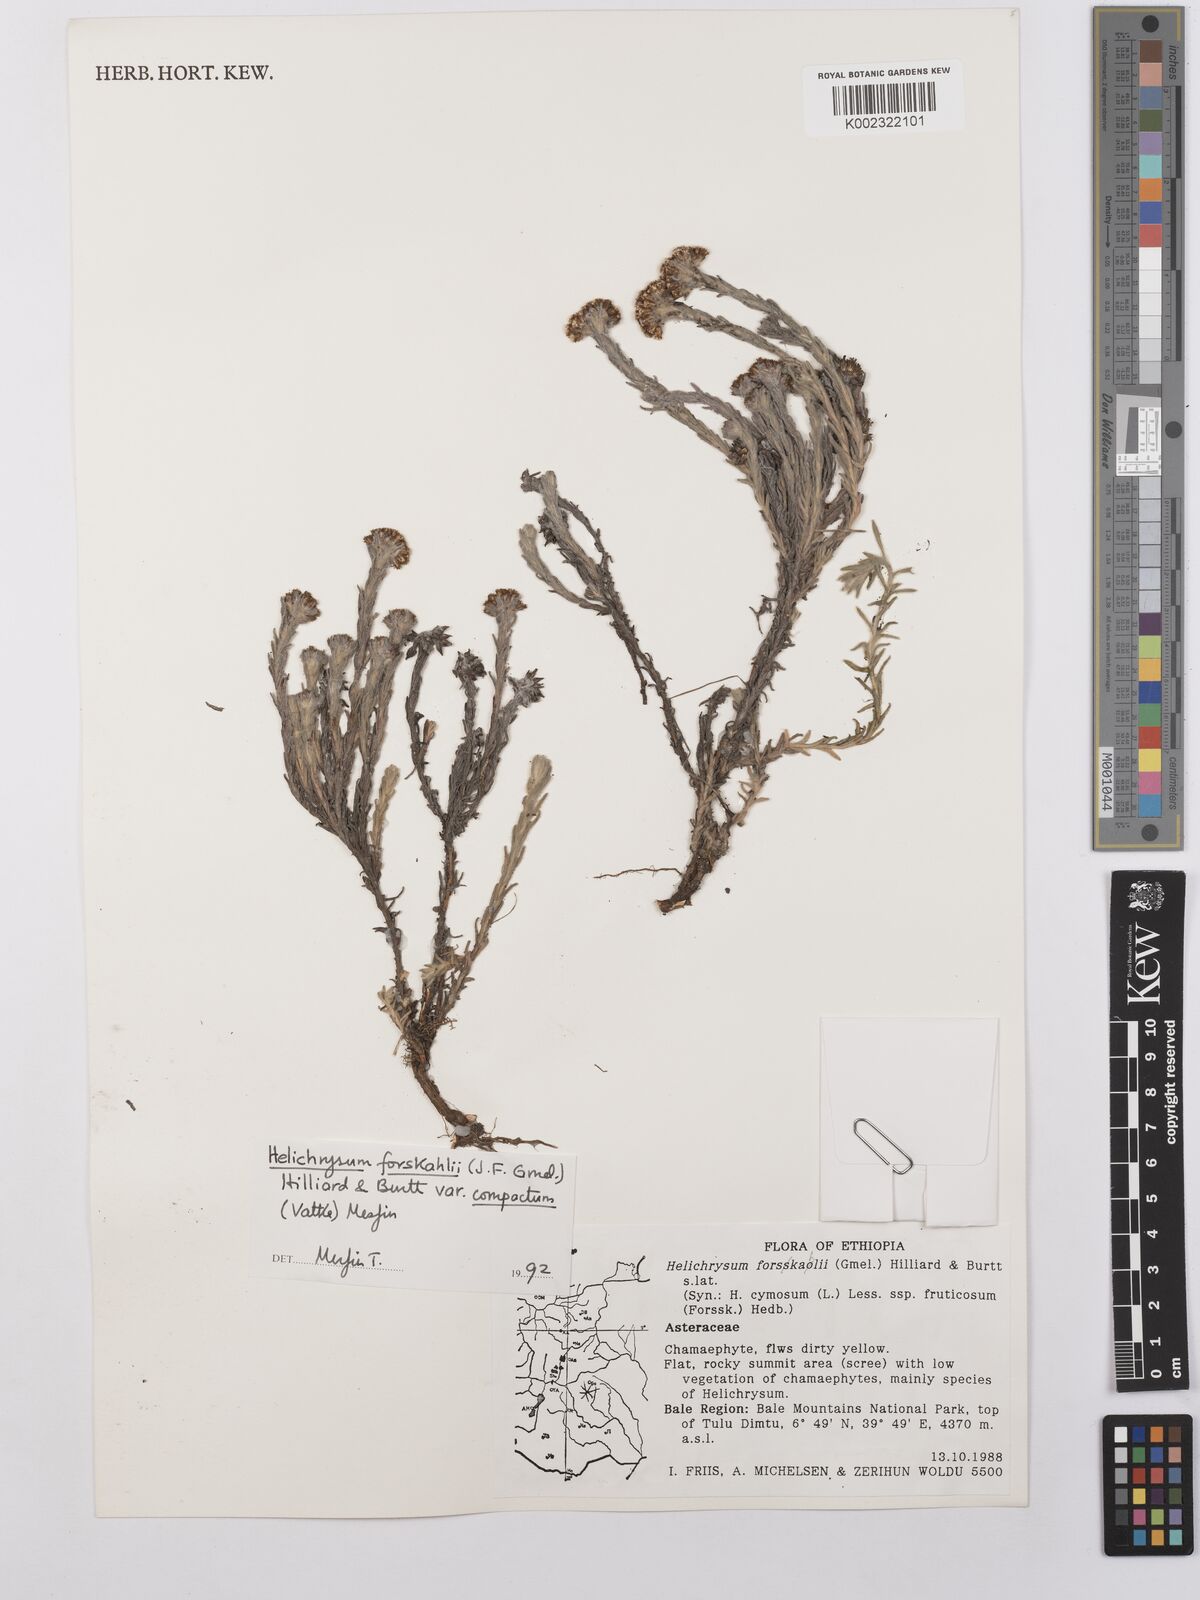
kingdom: Plantae
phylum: Tracheophyta
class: Magnoliopsida
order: Asterales
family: Asteraceae
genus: Helichrysum
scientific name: Helichrysum forskahlii
